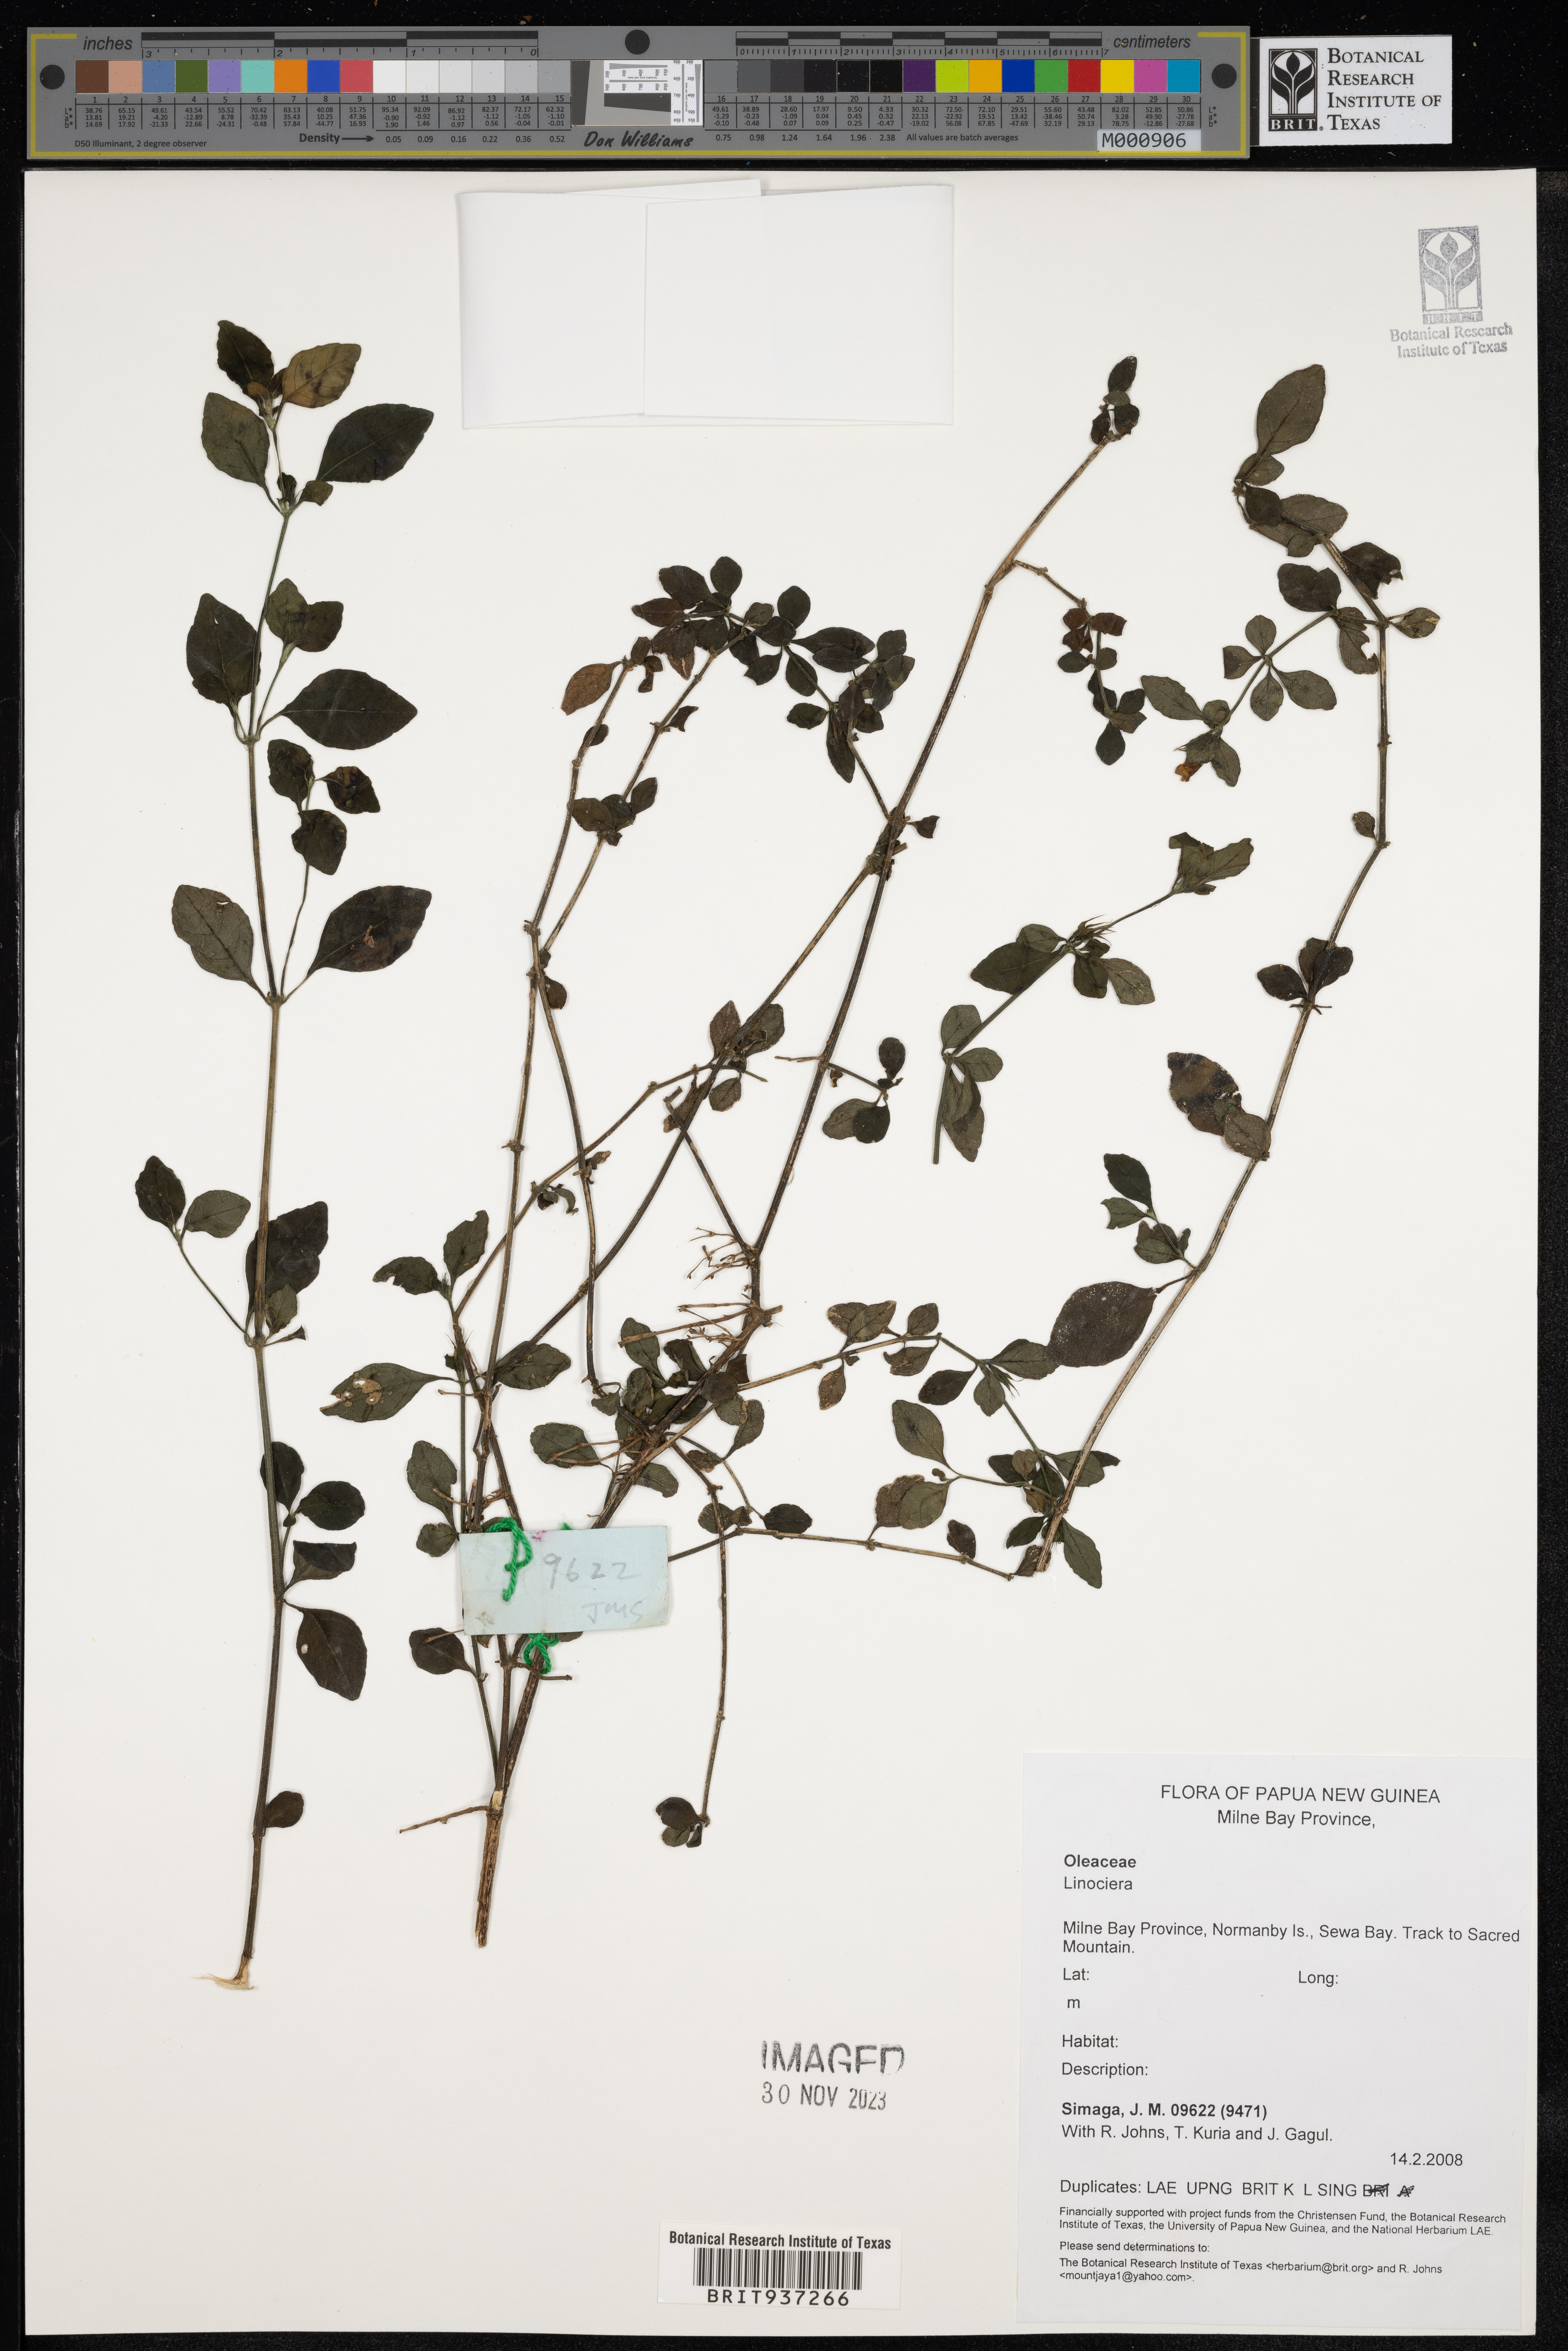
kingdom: Plantae
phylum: Tracheophyta
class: Magnoliopsida
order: Lamiales
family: Oleaceae
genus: Chionanthus
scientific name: Chionanthus
